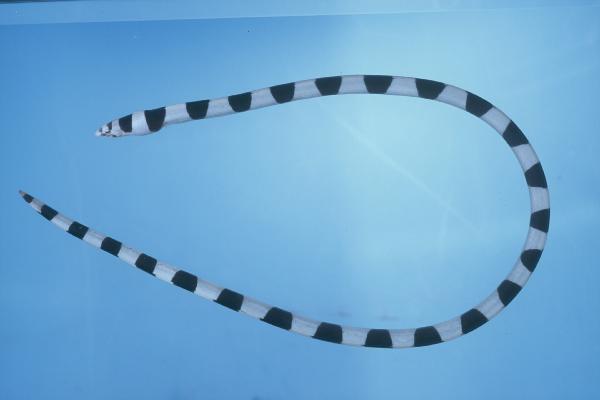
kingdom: Animalia
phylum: Chordata
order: Anguilliformes
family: Ophichthidae
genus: Leiuranus
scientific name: Leiuranus semicinctus
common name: Saddled snake eel
